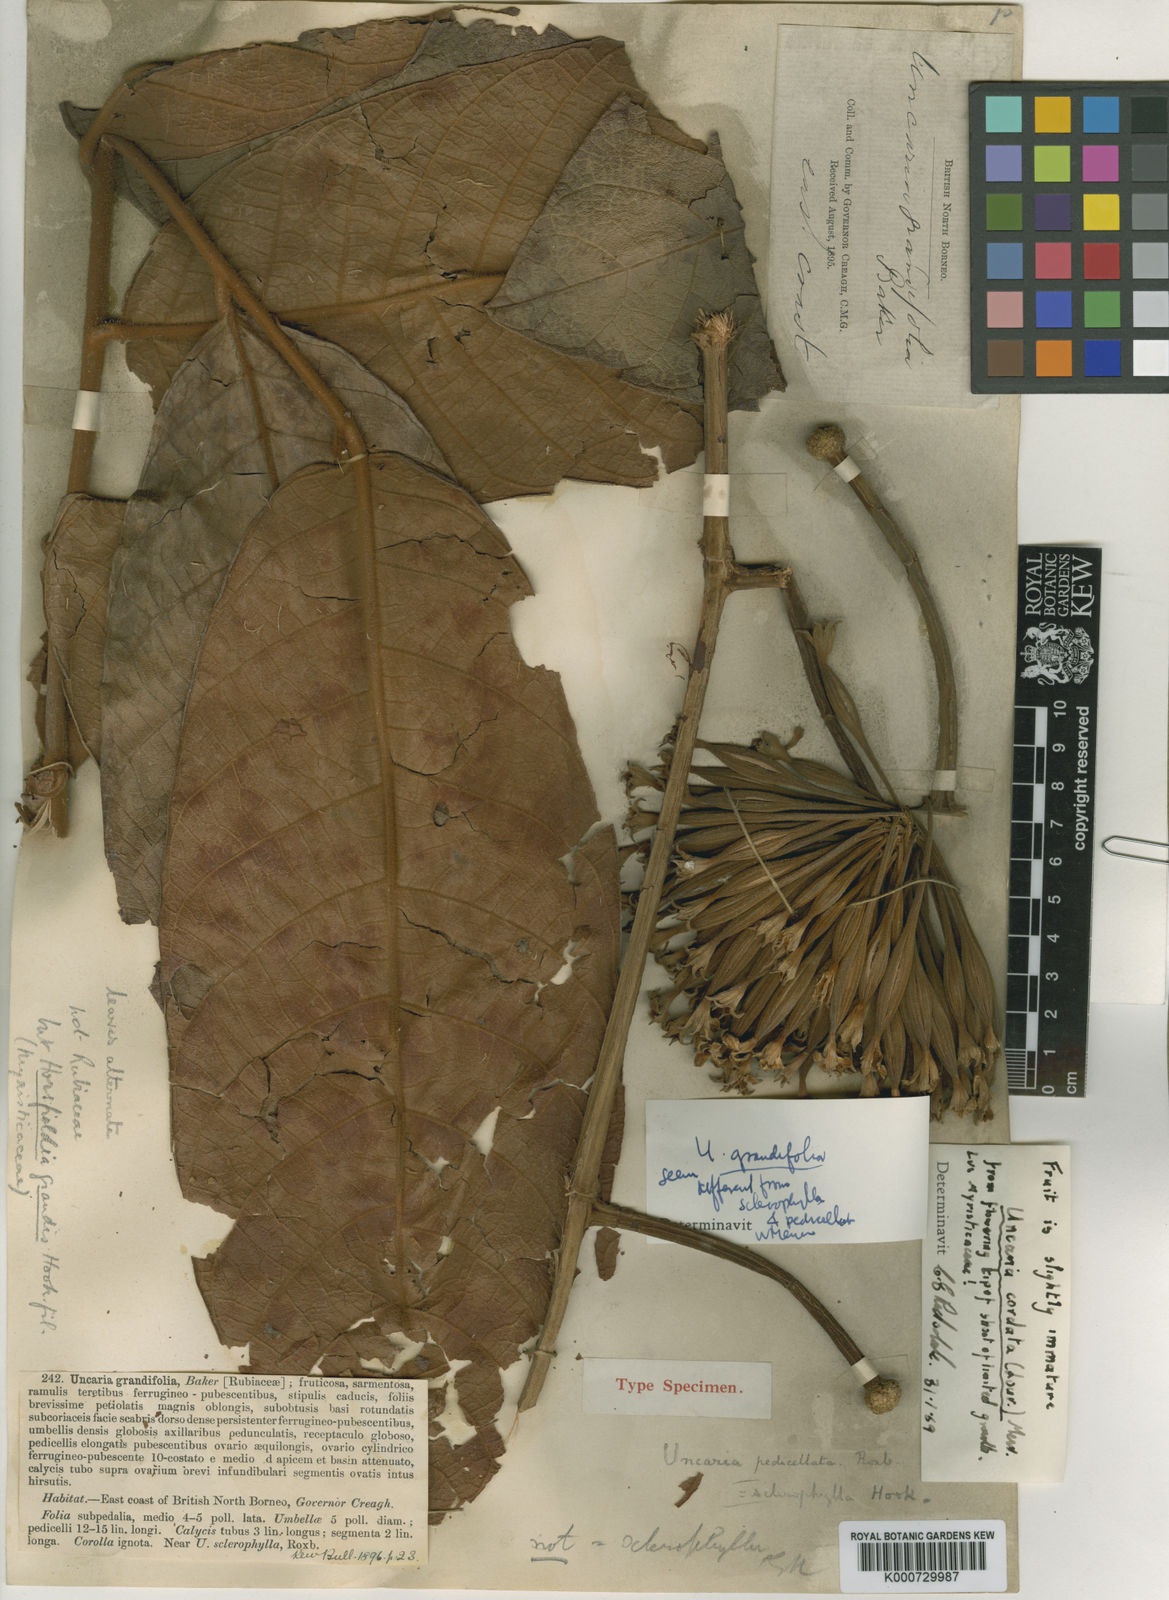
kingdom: Plantae
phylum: Tracheophyta
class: Magnoliopsida
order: Gentianales
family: Rubiaceae
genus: Uncaria
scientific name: Uncaria cordata
